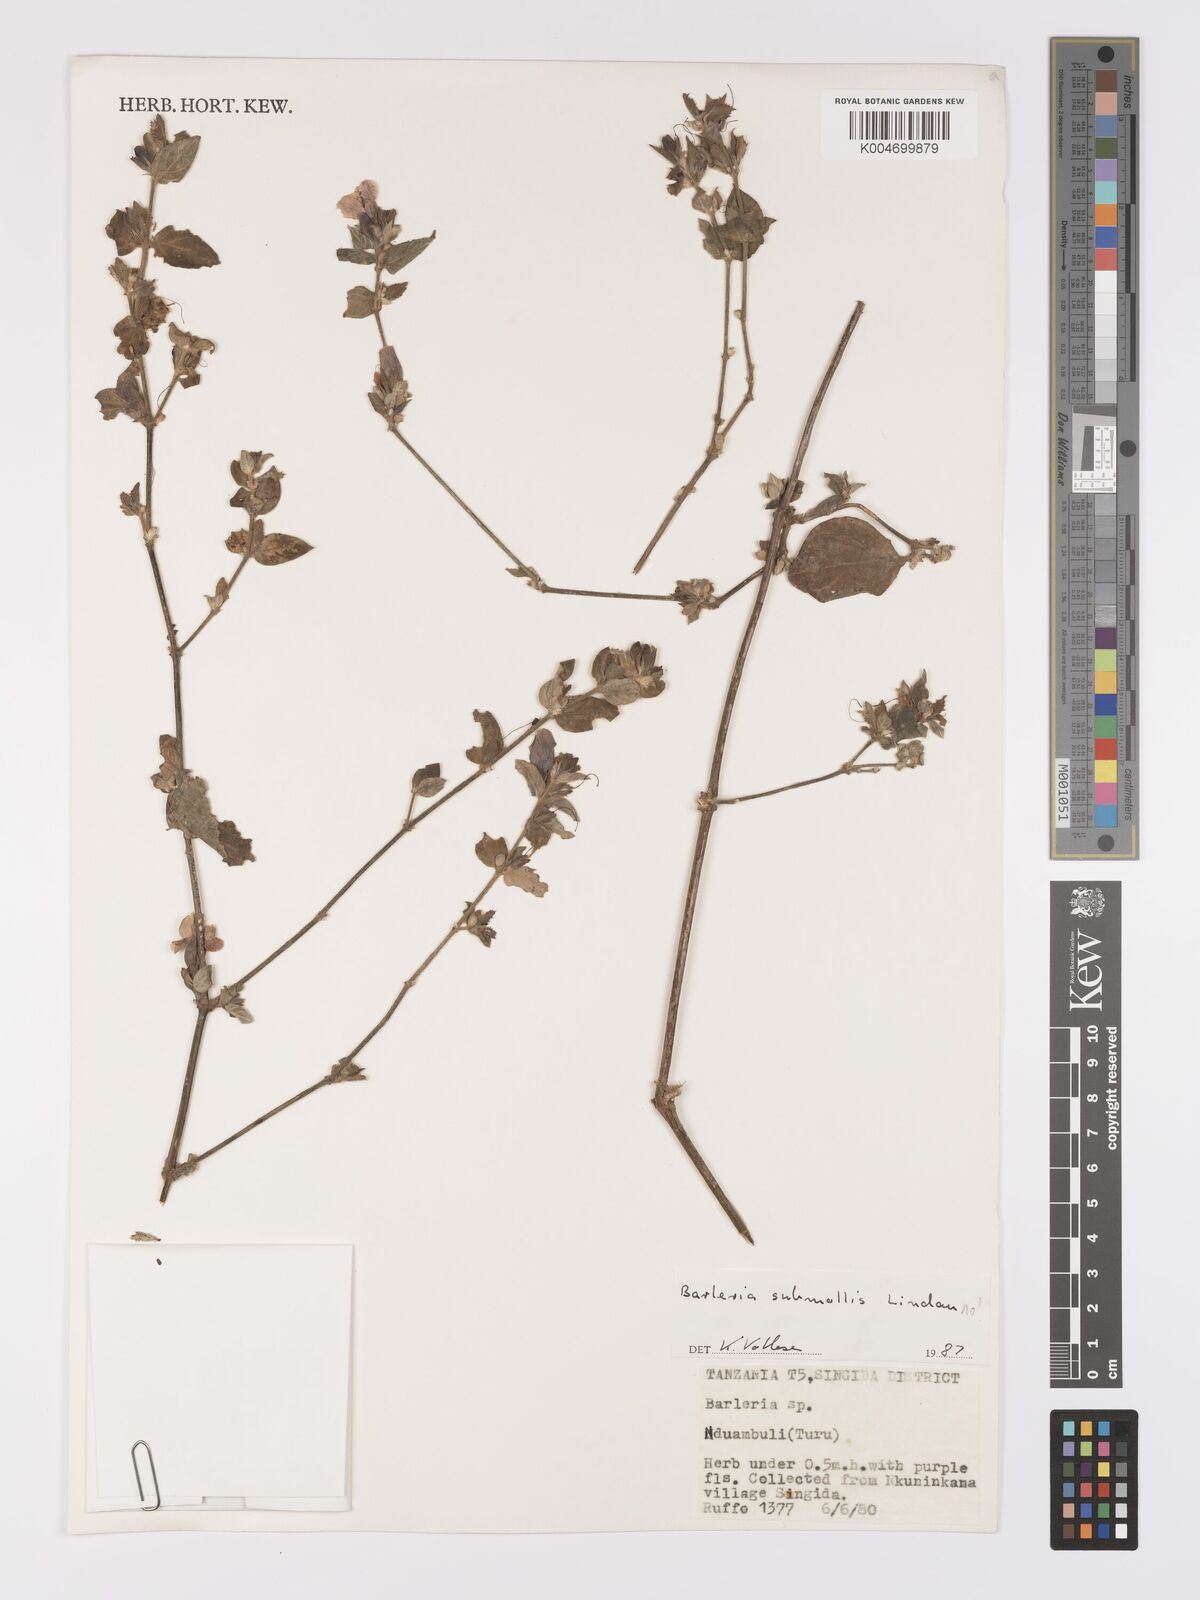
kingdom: Plantae
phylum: Tracheophyta
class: Magnoliopsida
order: Lamiales
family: Acanthaceae
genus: Barleria
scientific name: Barleria ventricosa
